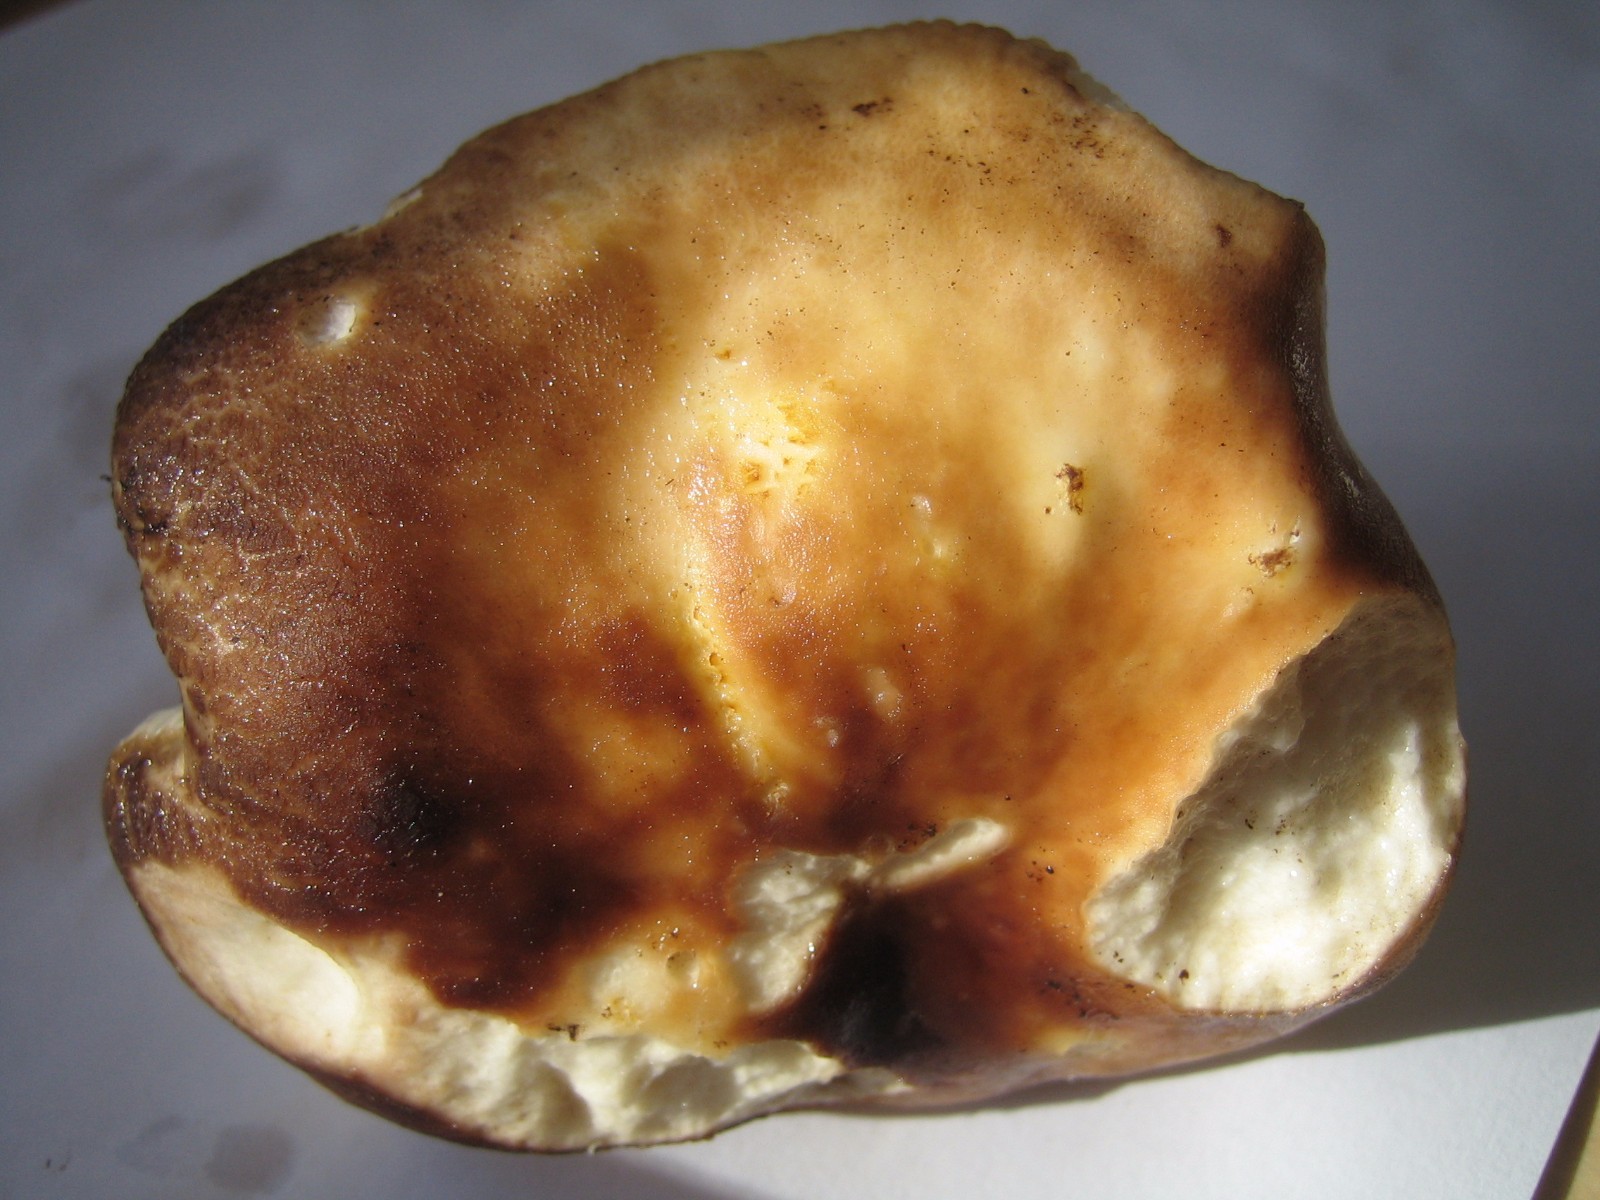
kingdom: Fungi
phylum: Basidiomycota
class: Agaricomycetes
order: Russulales
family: Russulaceae
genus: Russula
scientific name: Russula
